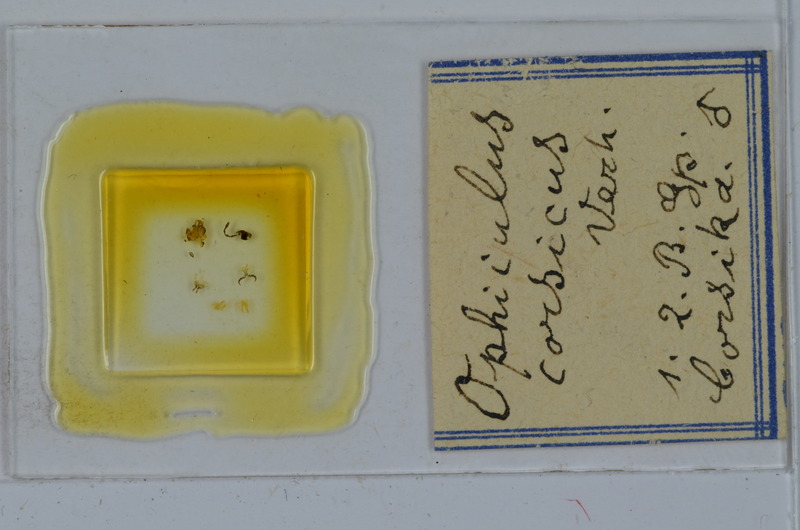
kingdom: Animalia
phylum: Arthropoda
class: Diplopoda
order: Julida
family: Julidae
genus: Ophyiulus
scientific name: Ophyiulus corsicus
